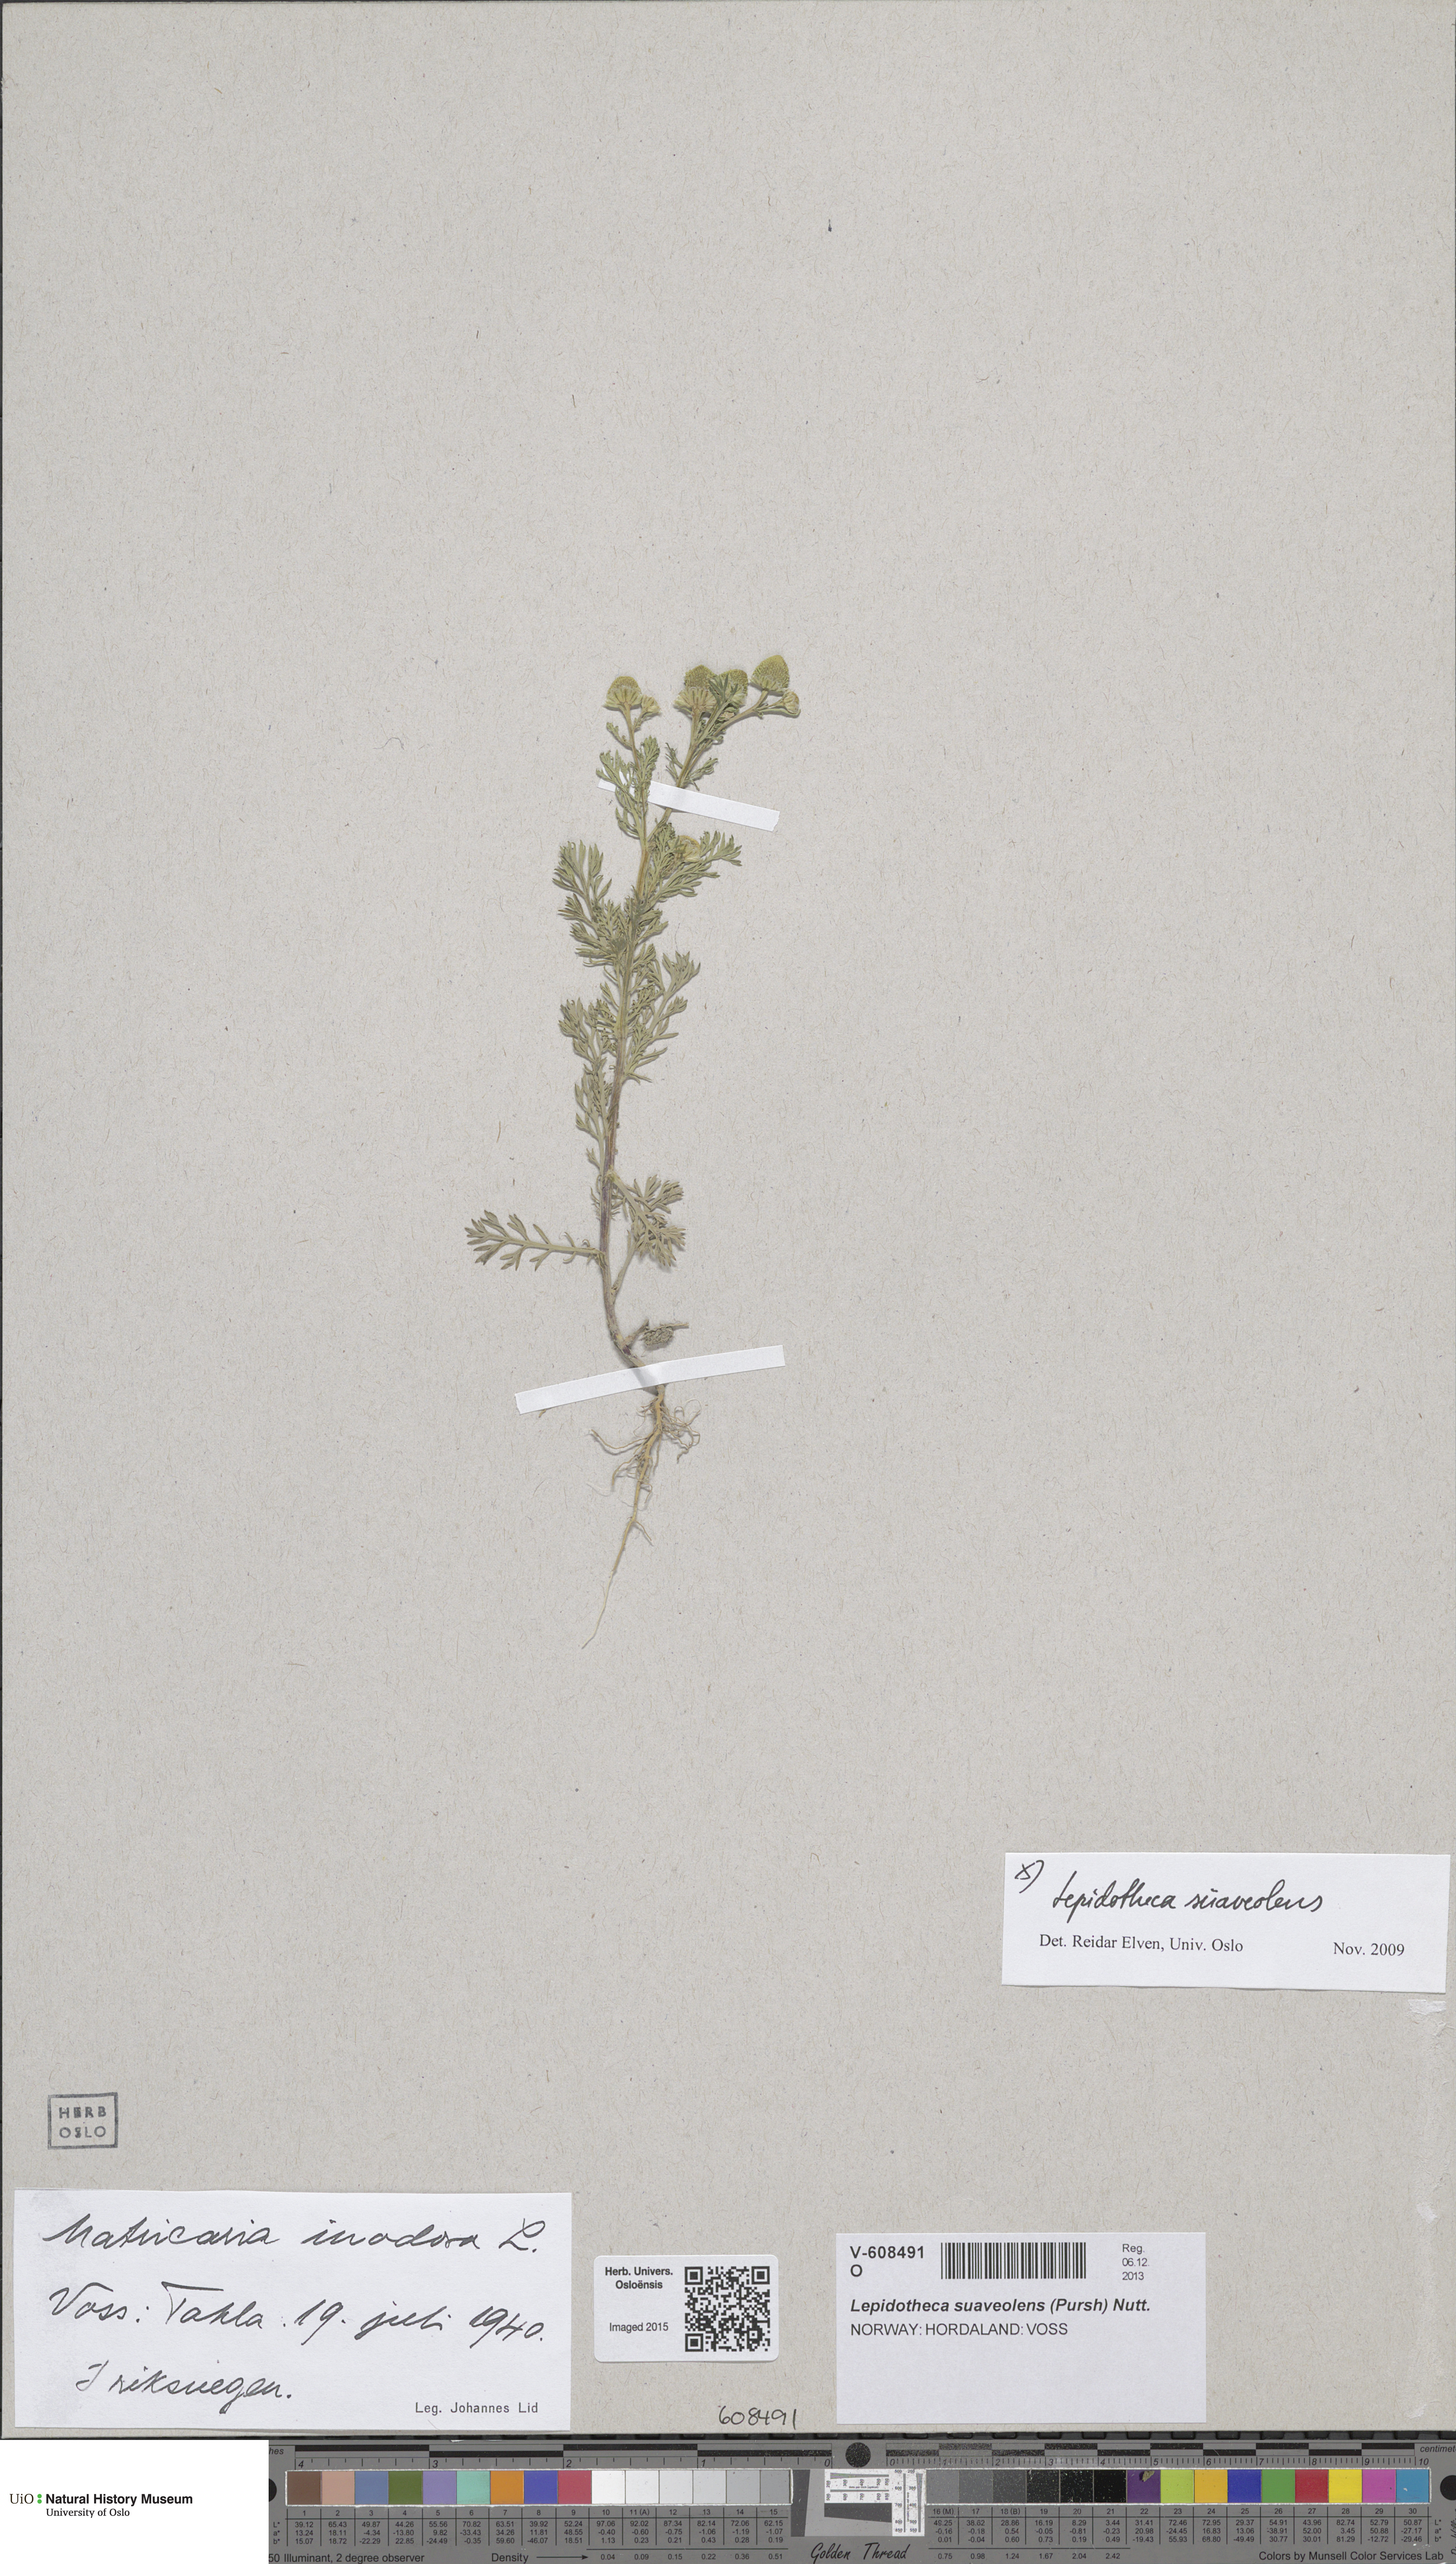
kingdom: Plantae
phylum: Tracheophyta
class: Magnoliopsida
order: Asterales
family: Asteraceae
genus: Tripleurospermum
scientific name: Tripleurospermum inodorum
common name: Scentless mayweed
